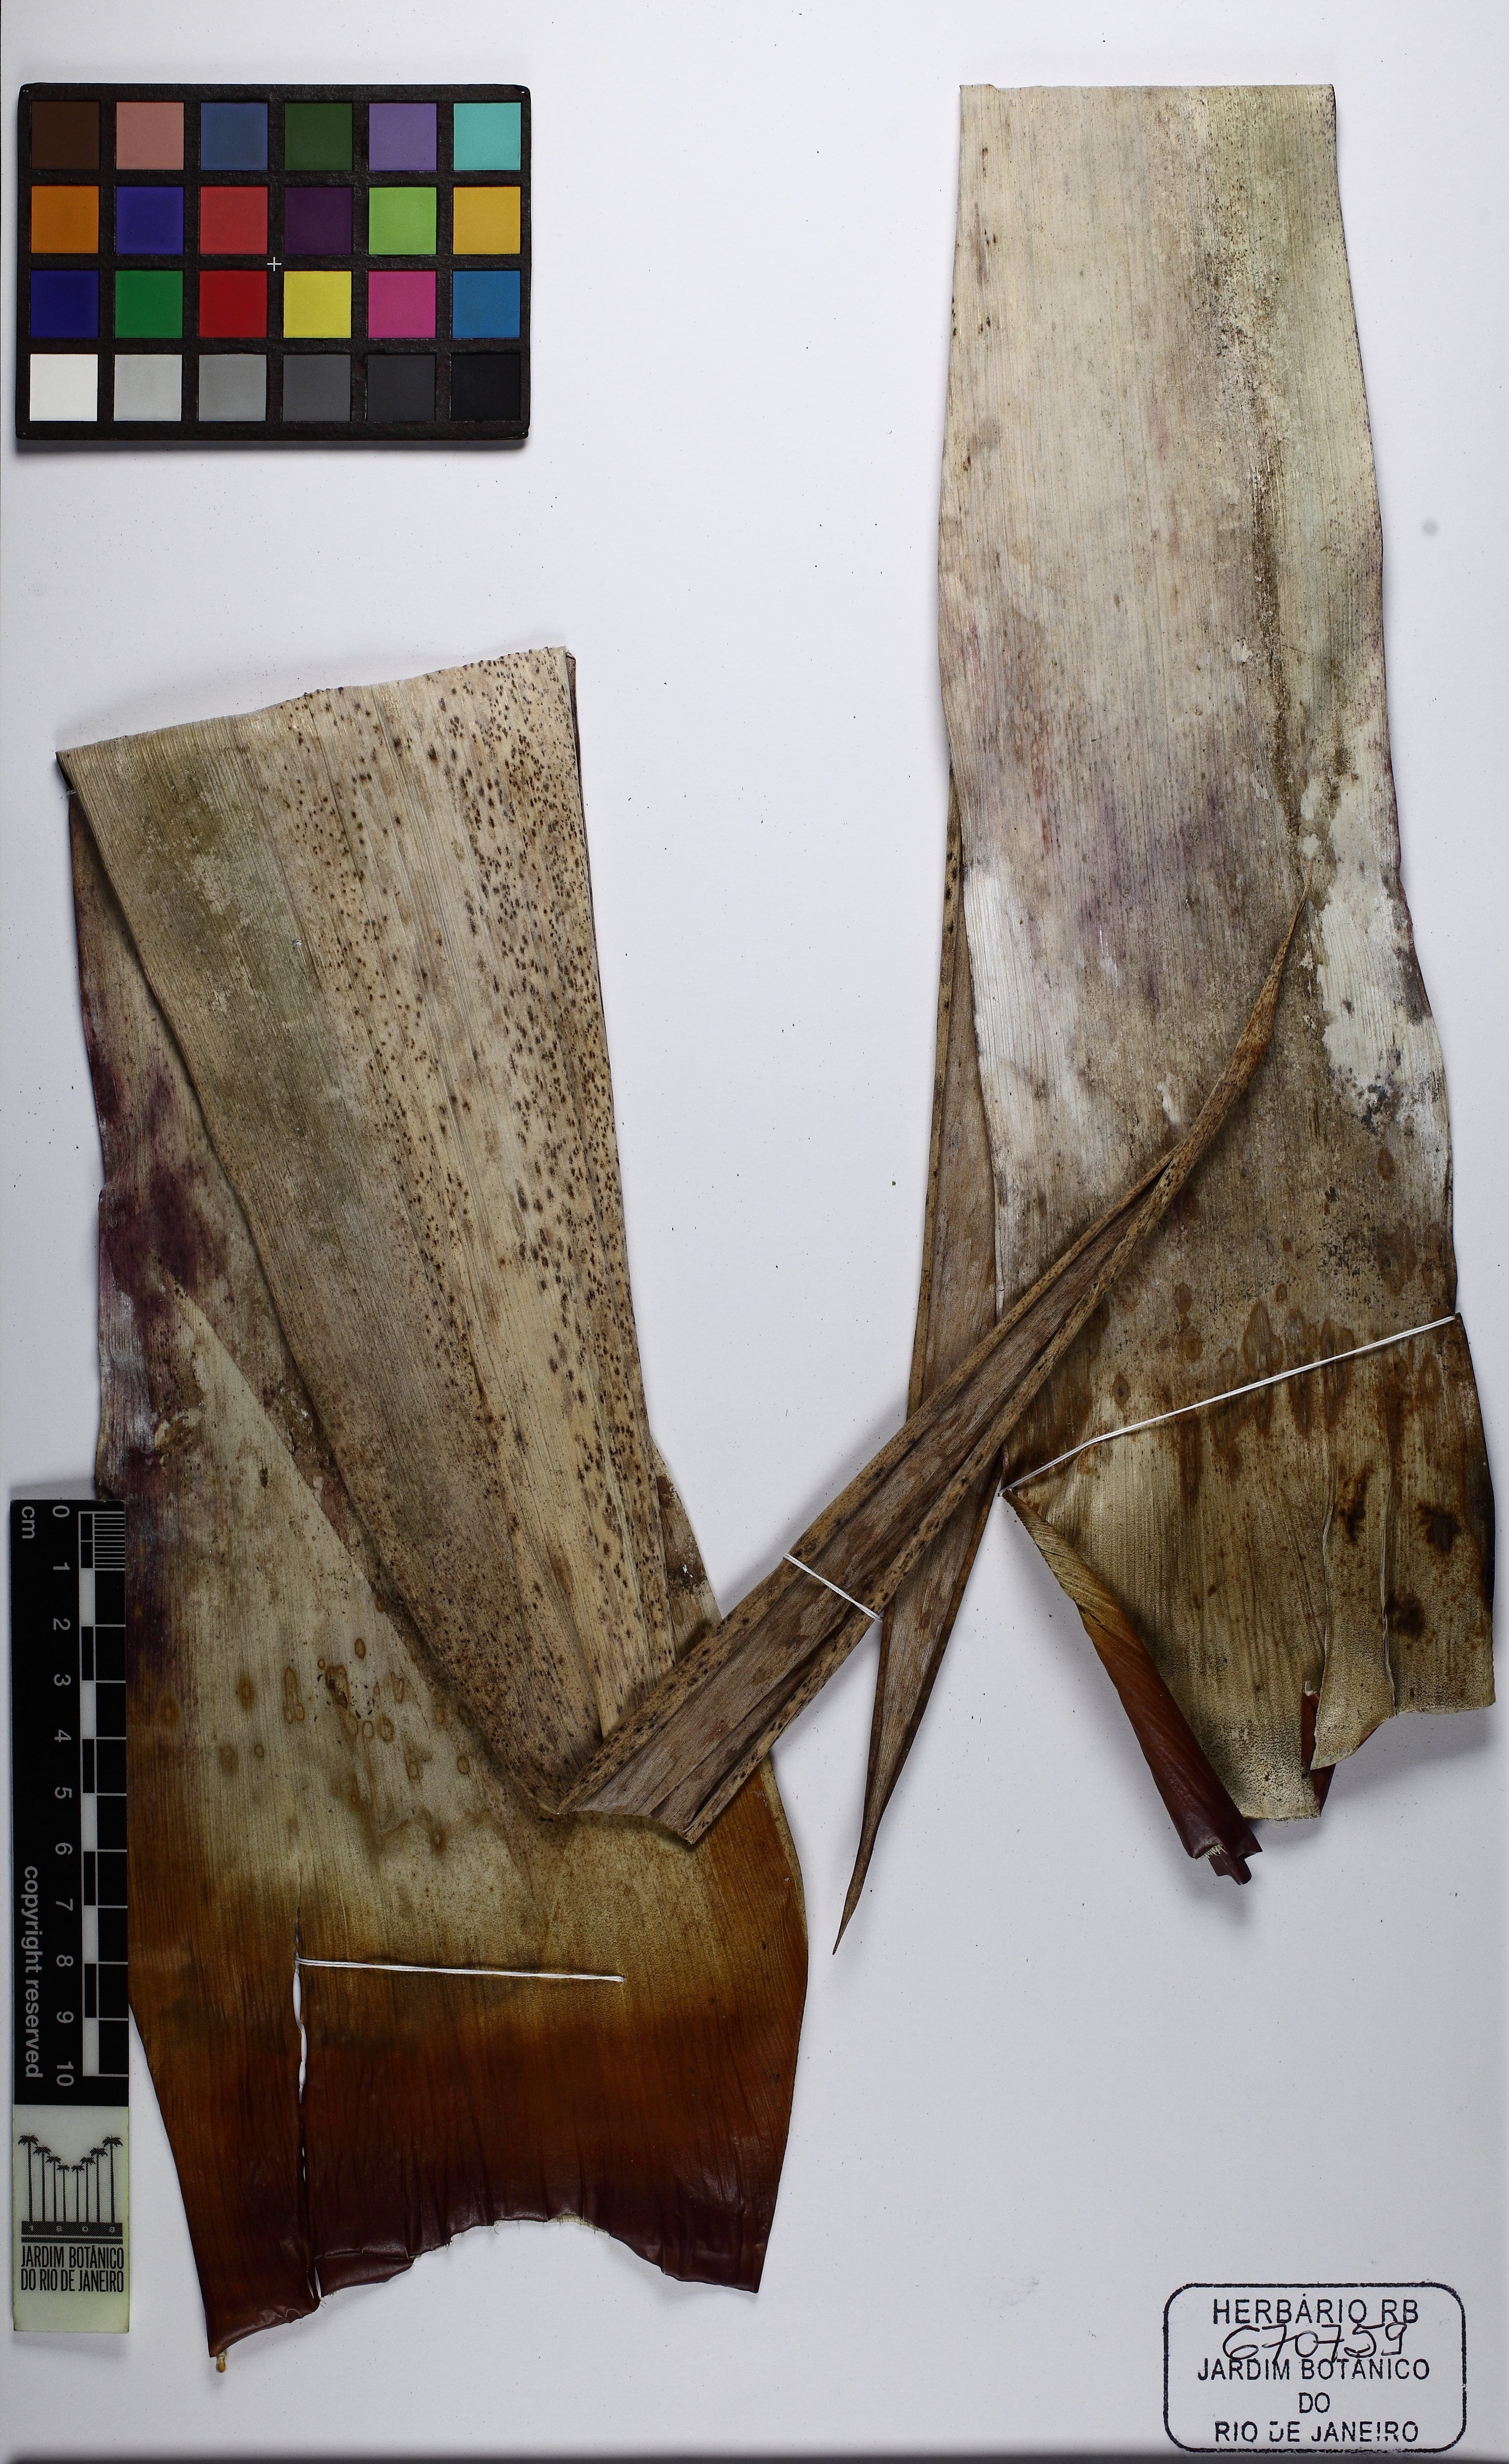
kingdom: Plantae
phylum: Tracheophyta
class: Liliopsida
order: Poales
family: Bromeliaceae
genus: Alcantarea
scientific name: Alcantarea cerosa
